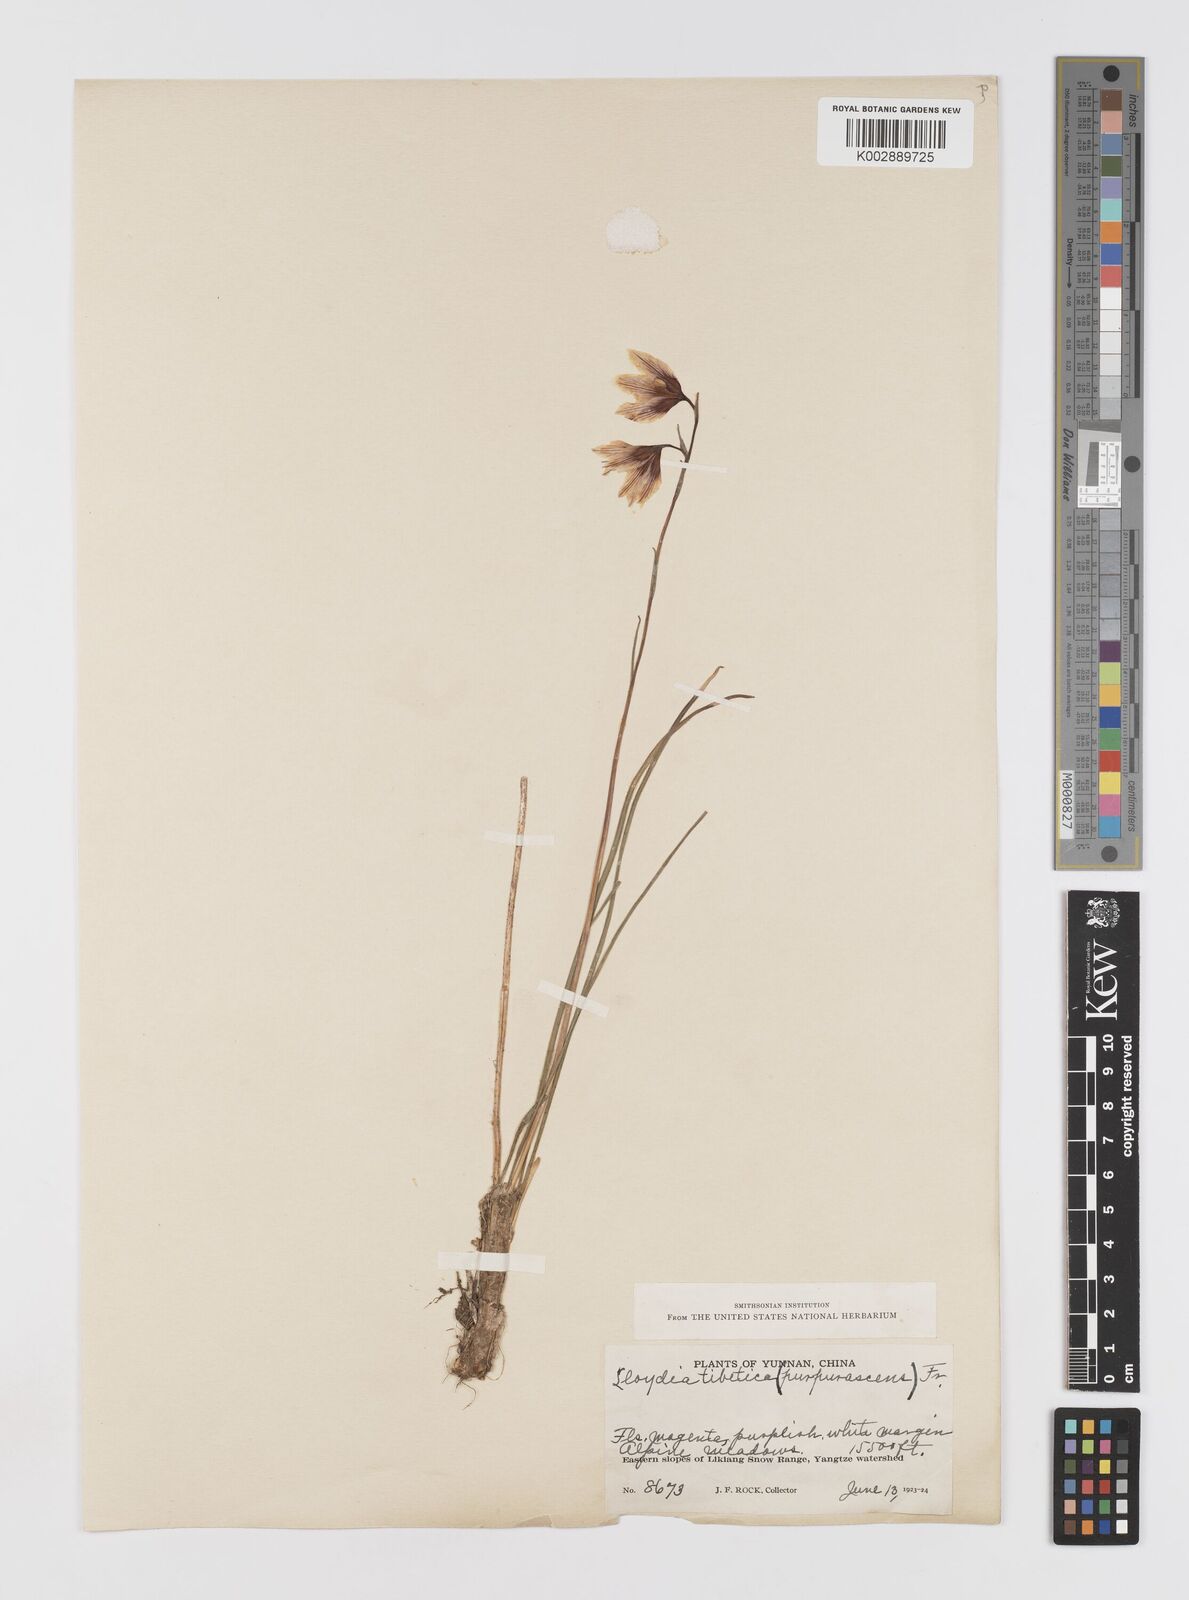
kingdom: Plantae
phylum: Tracheophyta
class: Liliopsida
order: Liliales
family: Liliaceae
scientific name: Liliaceae
